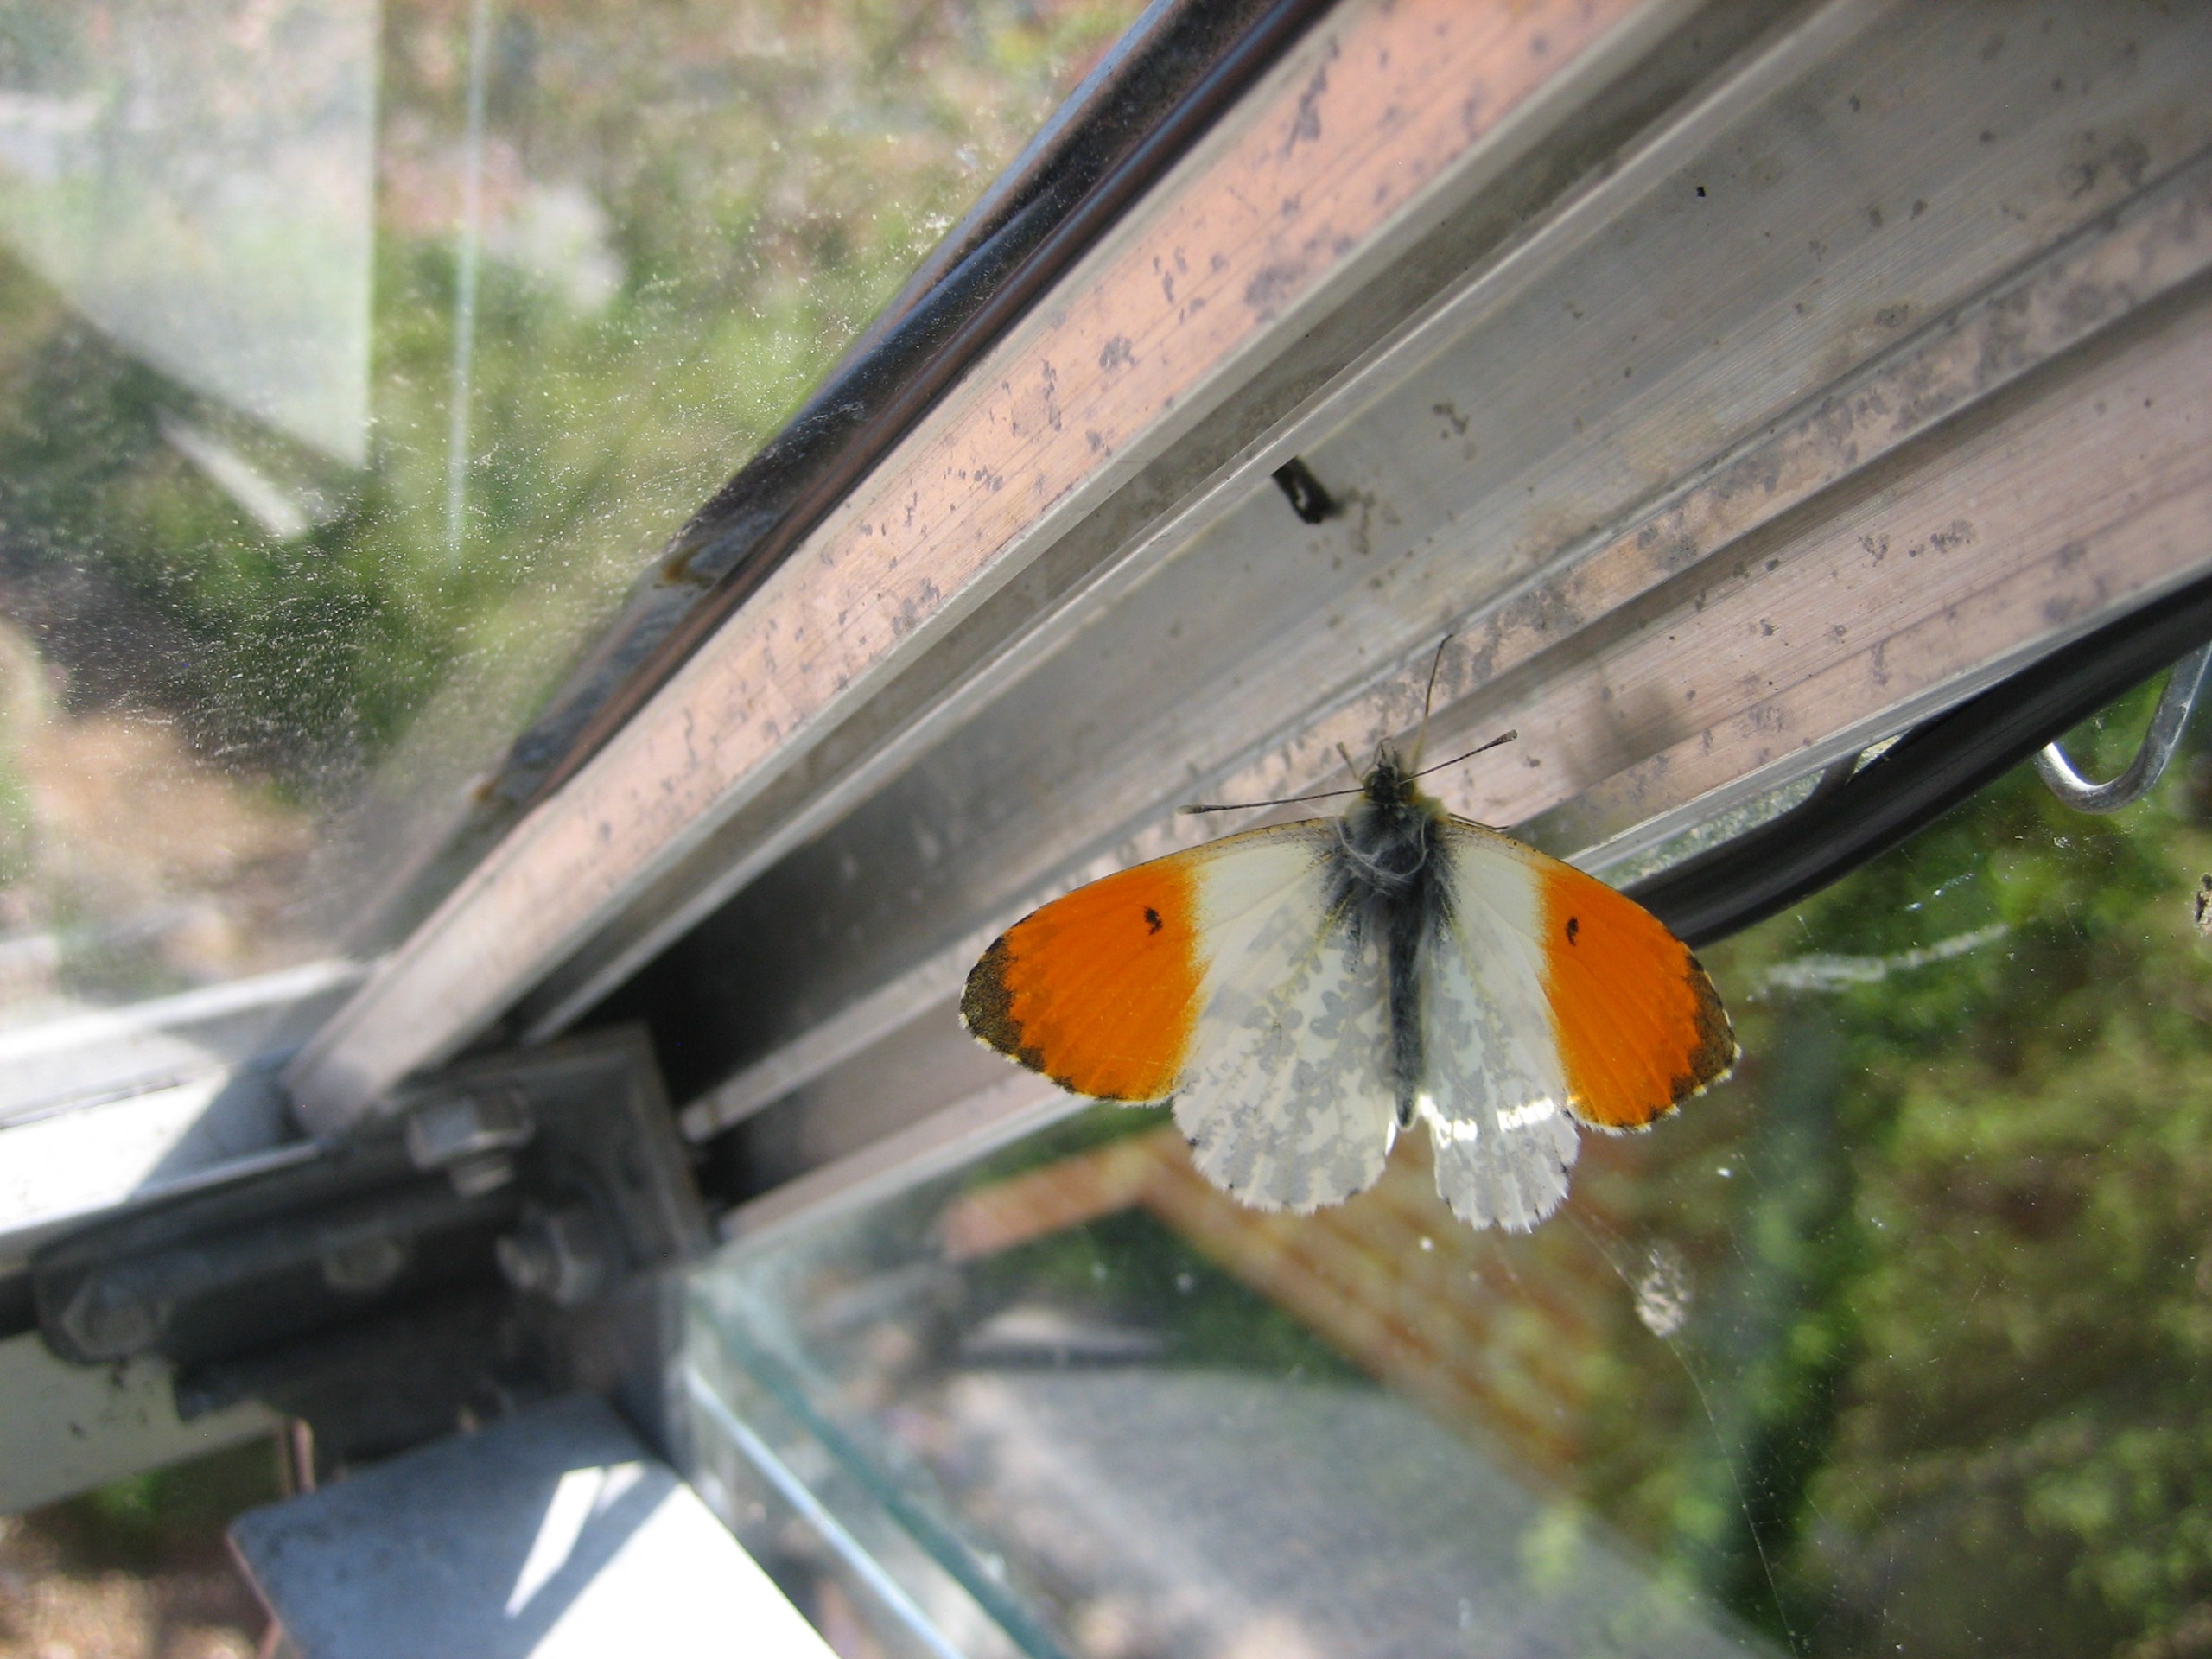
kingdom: Animalia
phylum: Arthropoda
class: Insecta
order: Lepidoptera
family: Pieridae
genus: Anthocharis
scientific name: Anthocharis cardamines
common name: Aurora
